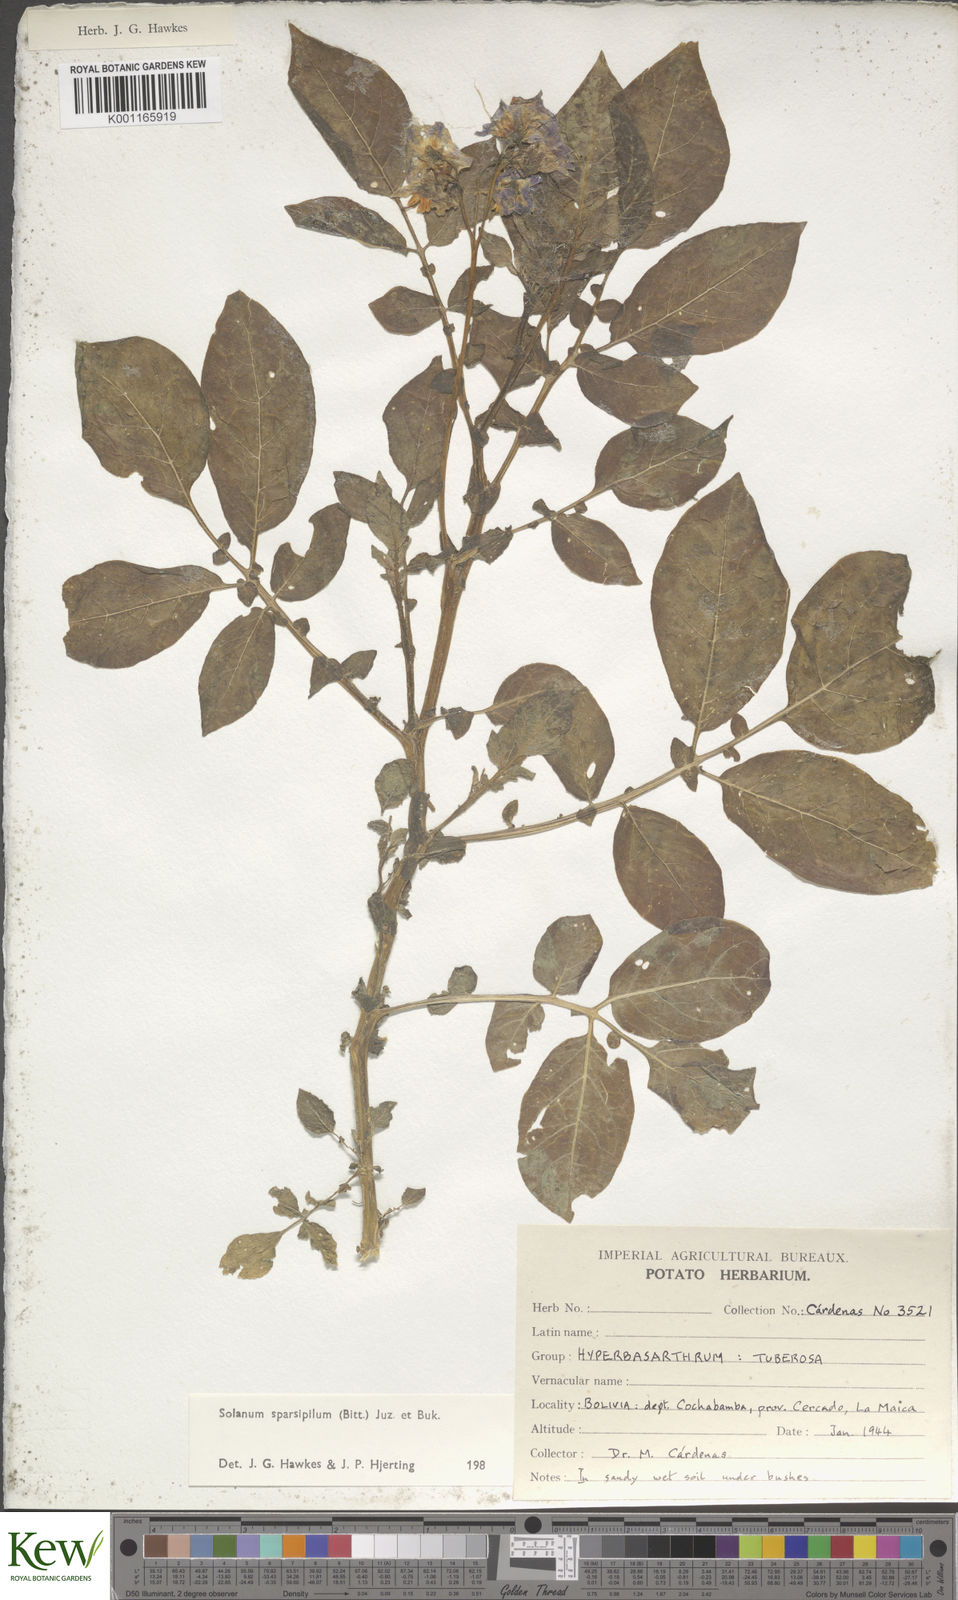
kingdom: Plantae
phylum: Tracheophyta
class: Magnoliopsida
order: Solanales
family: Solanaceae
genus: Solanum
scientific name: Solanum brevicaule
